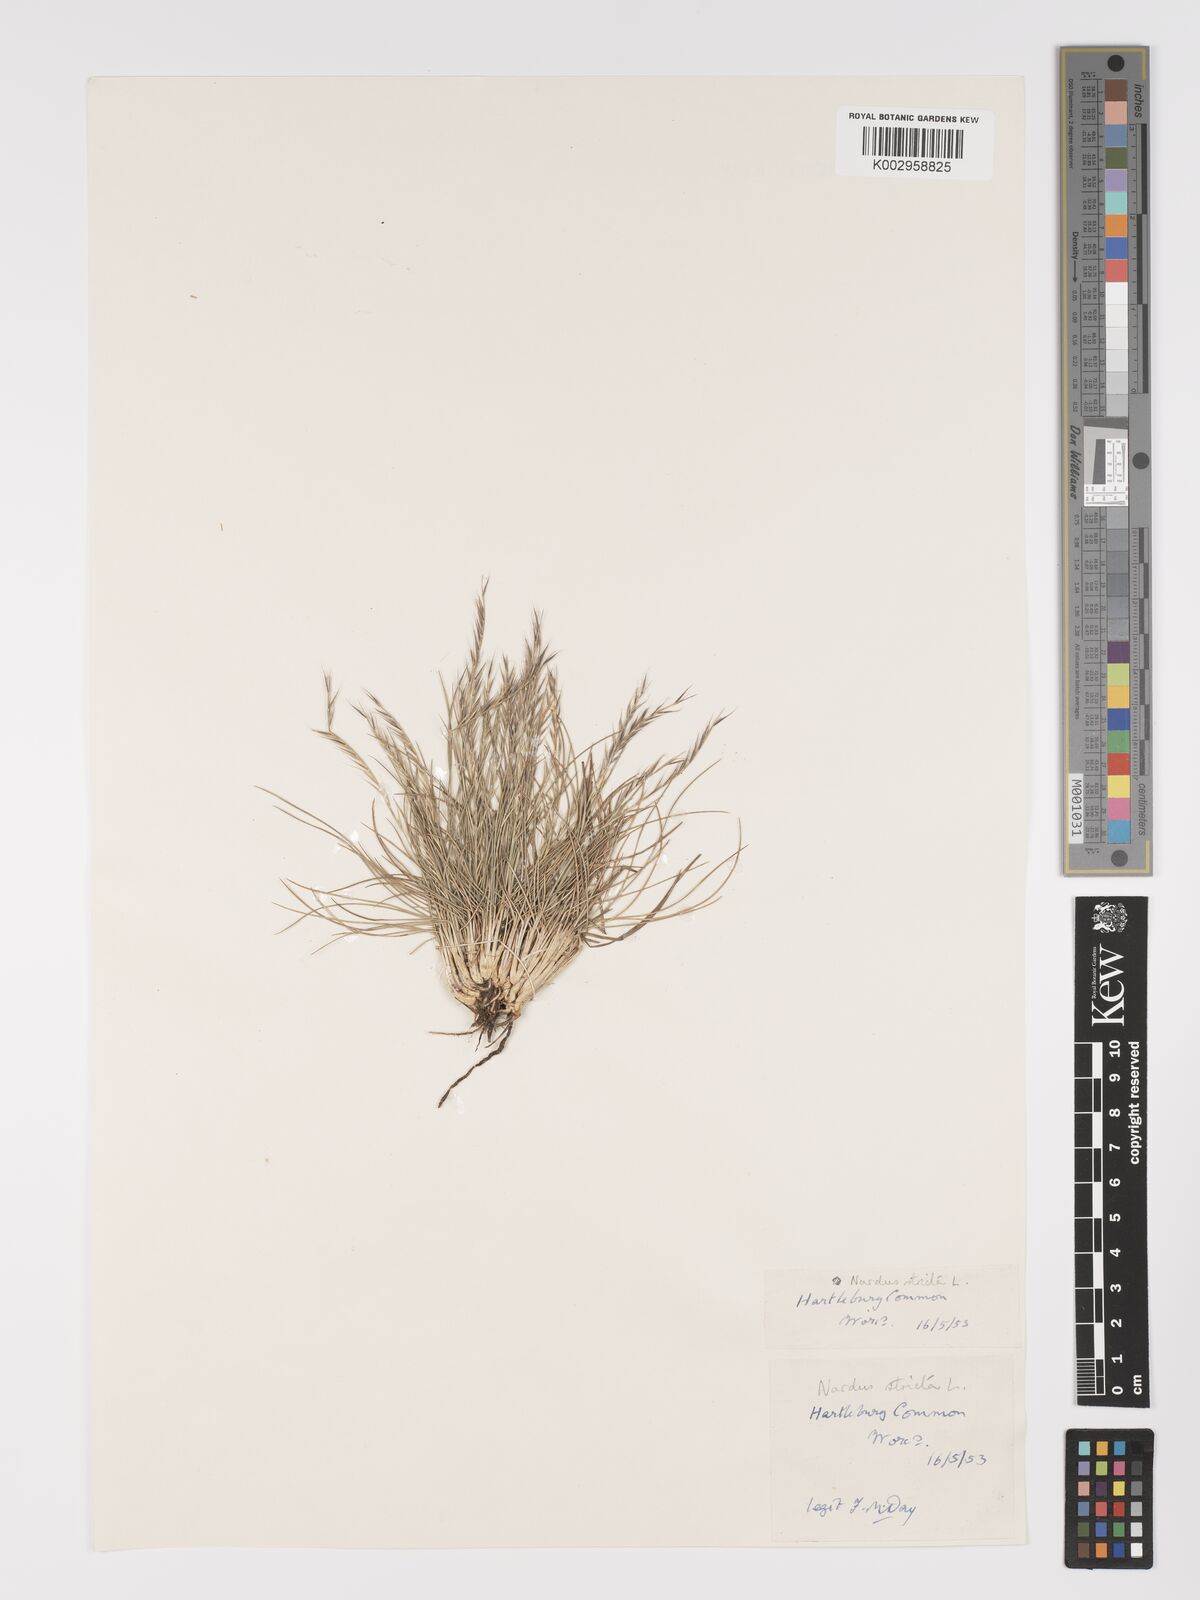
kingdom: Plantae
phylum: Tracheophyta
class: Liliopsida
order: Poales
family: Poaceae
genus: Nardus
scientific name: Nardus stricta
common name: Mat-grass
